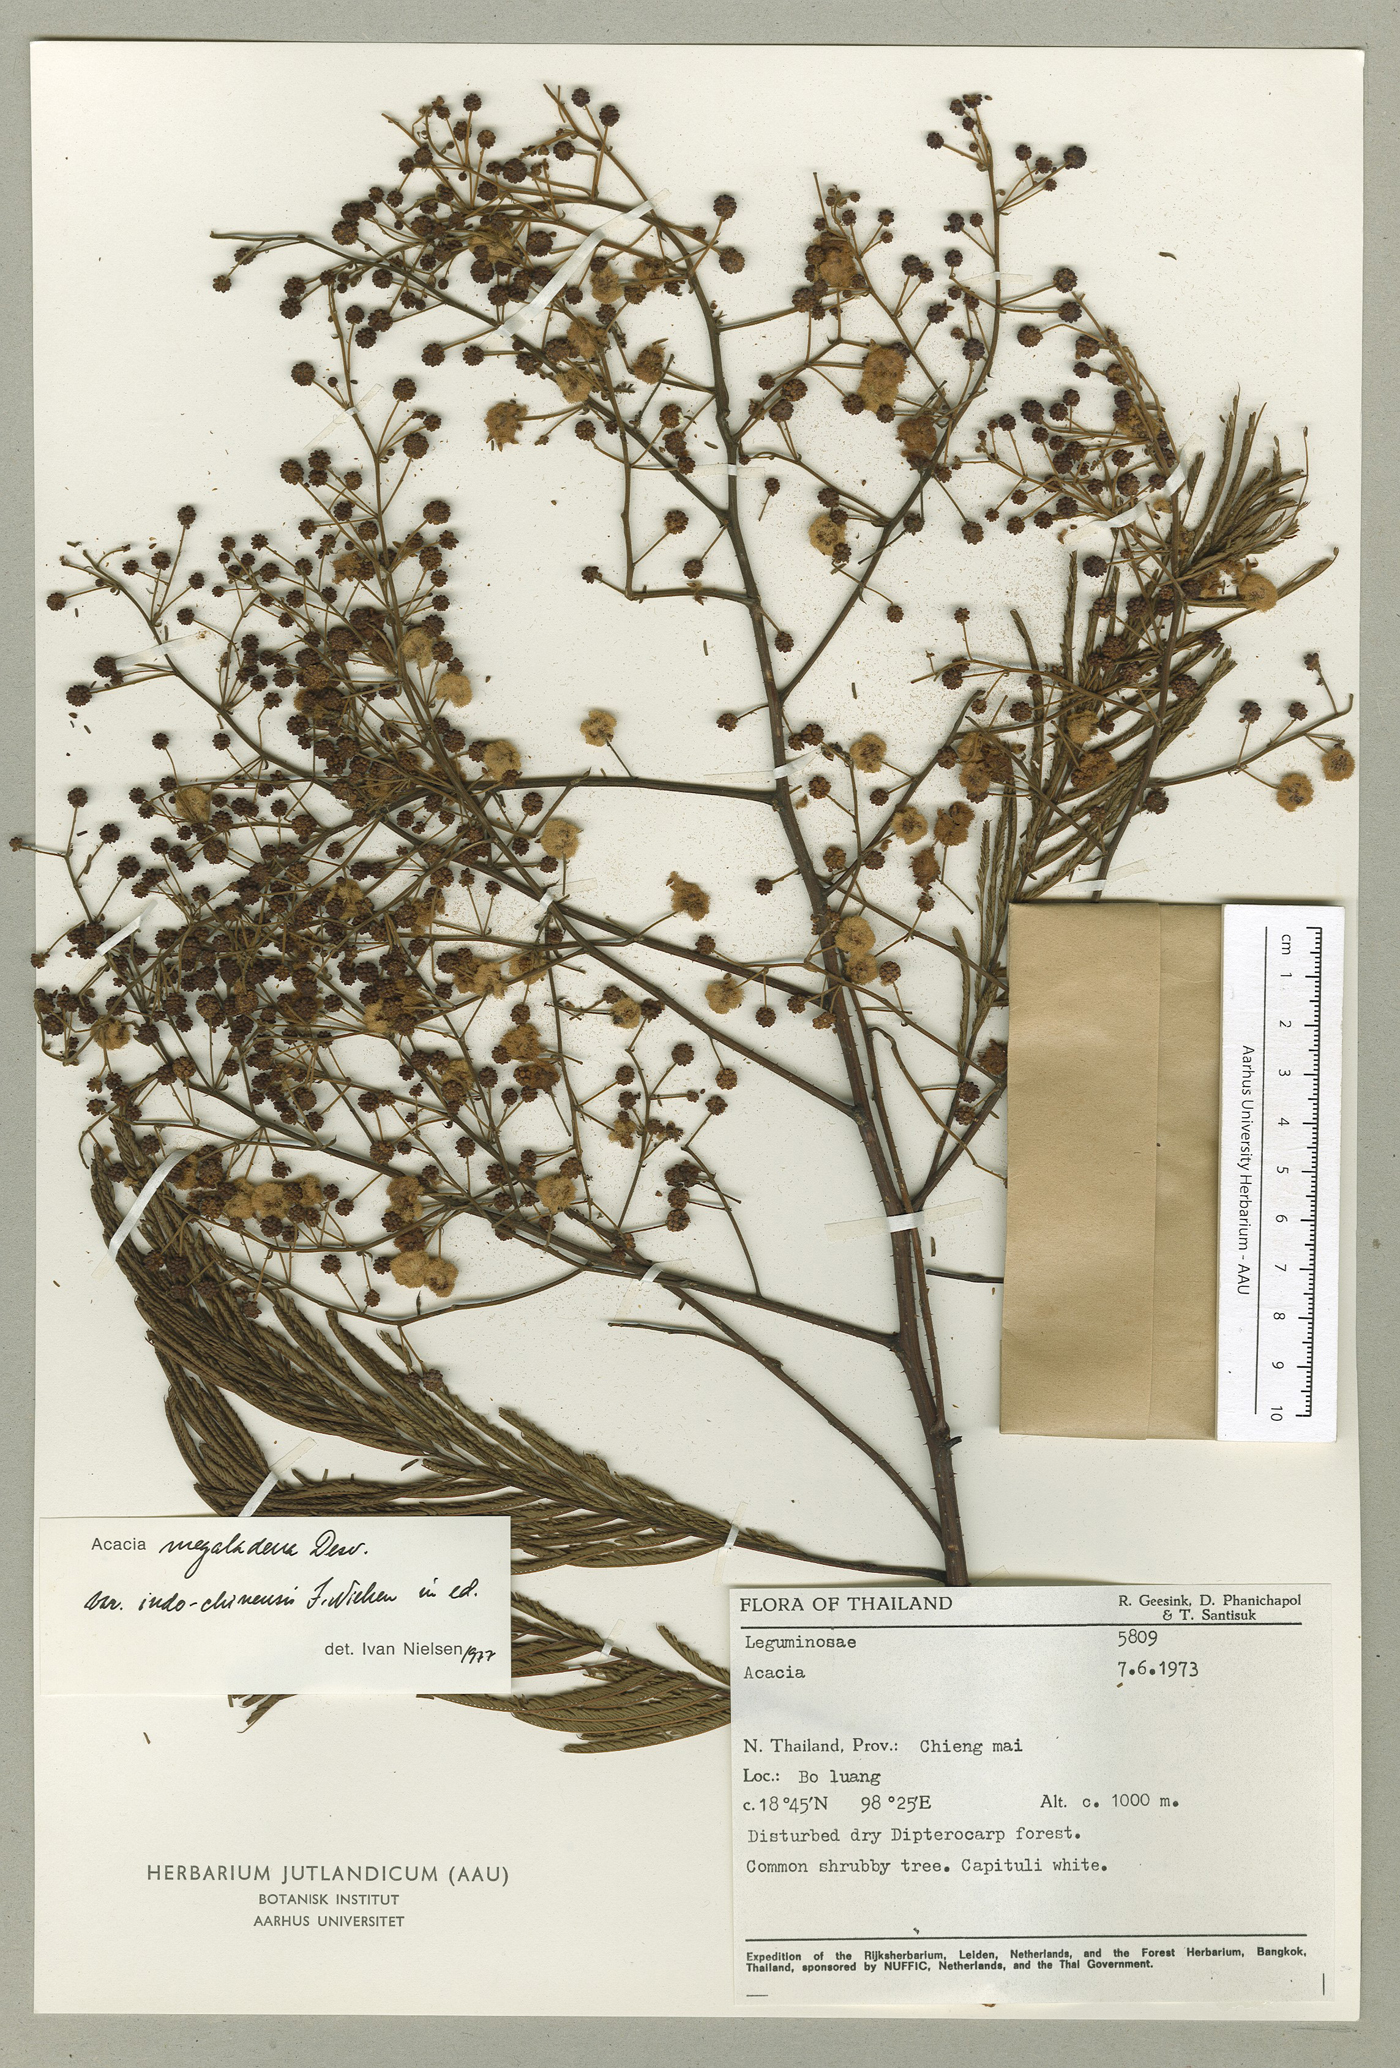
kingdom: Plantae
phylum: Tracheophyta
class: Magnoliopsida
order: Fabales
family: Fabaceae
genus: Senegalia
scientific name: Senegalia megaladena
